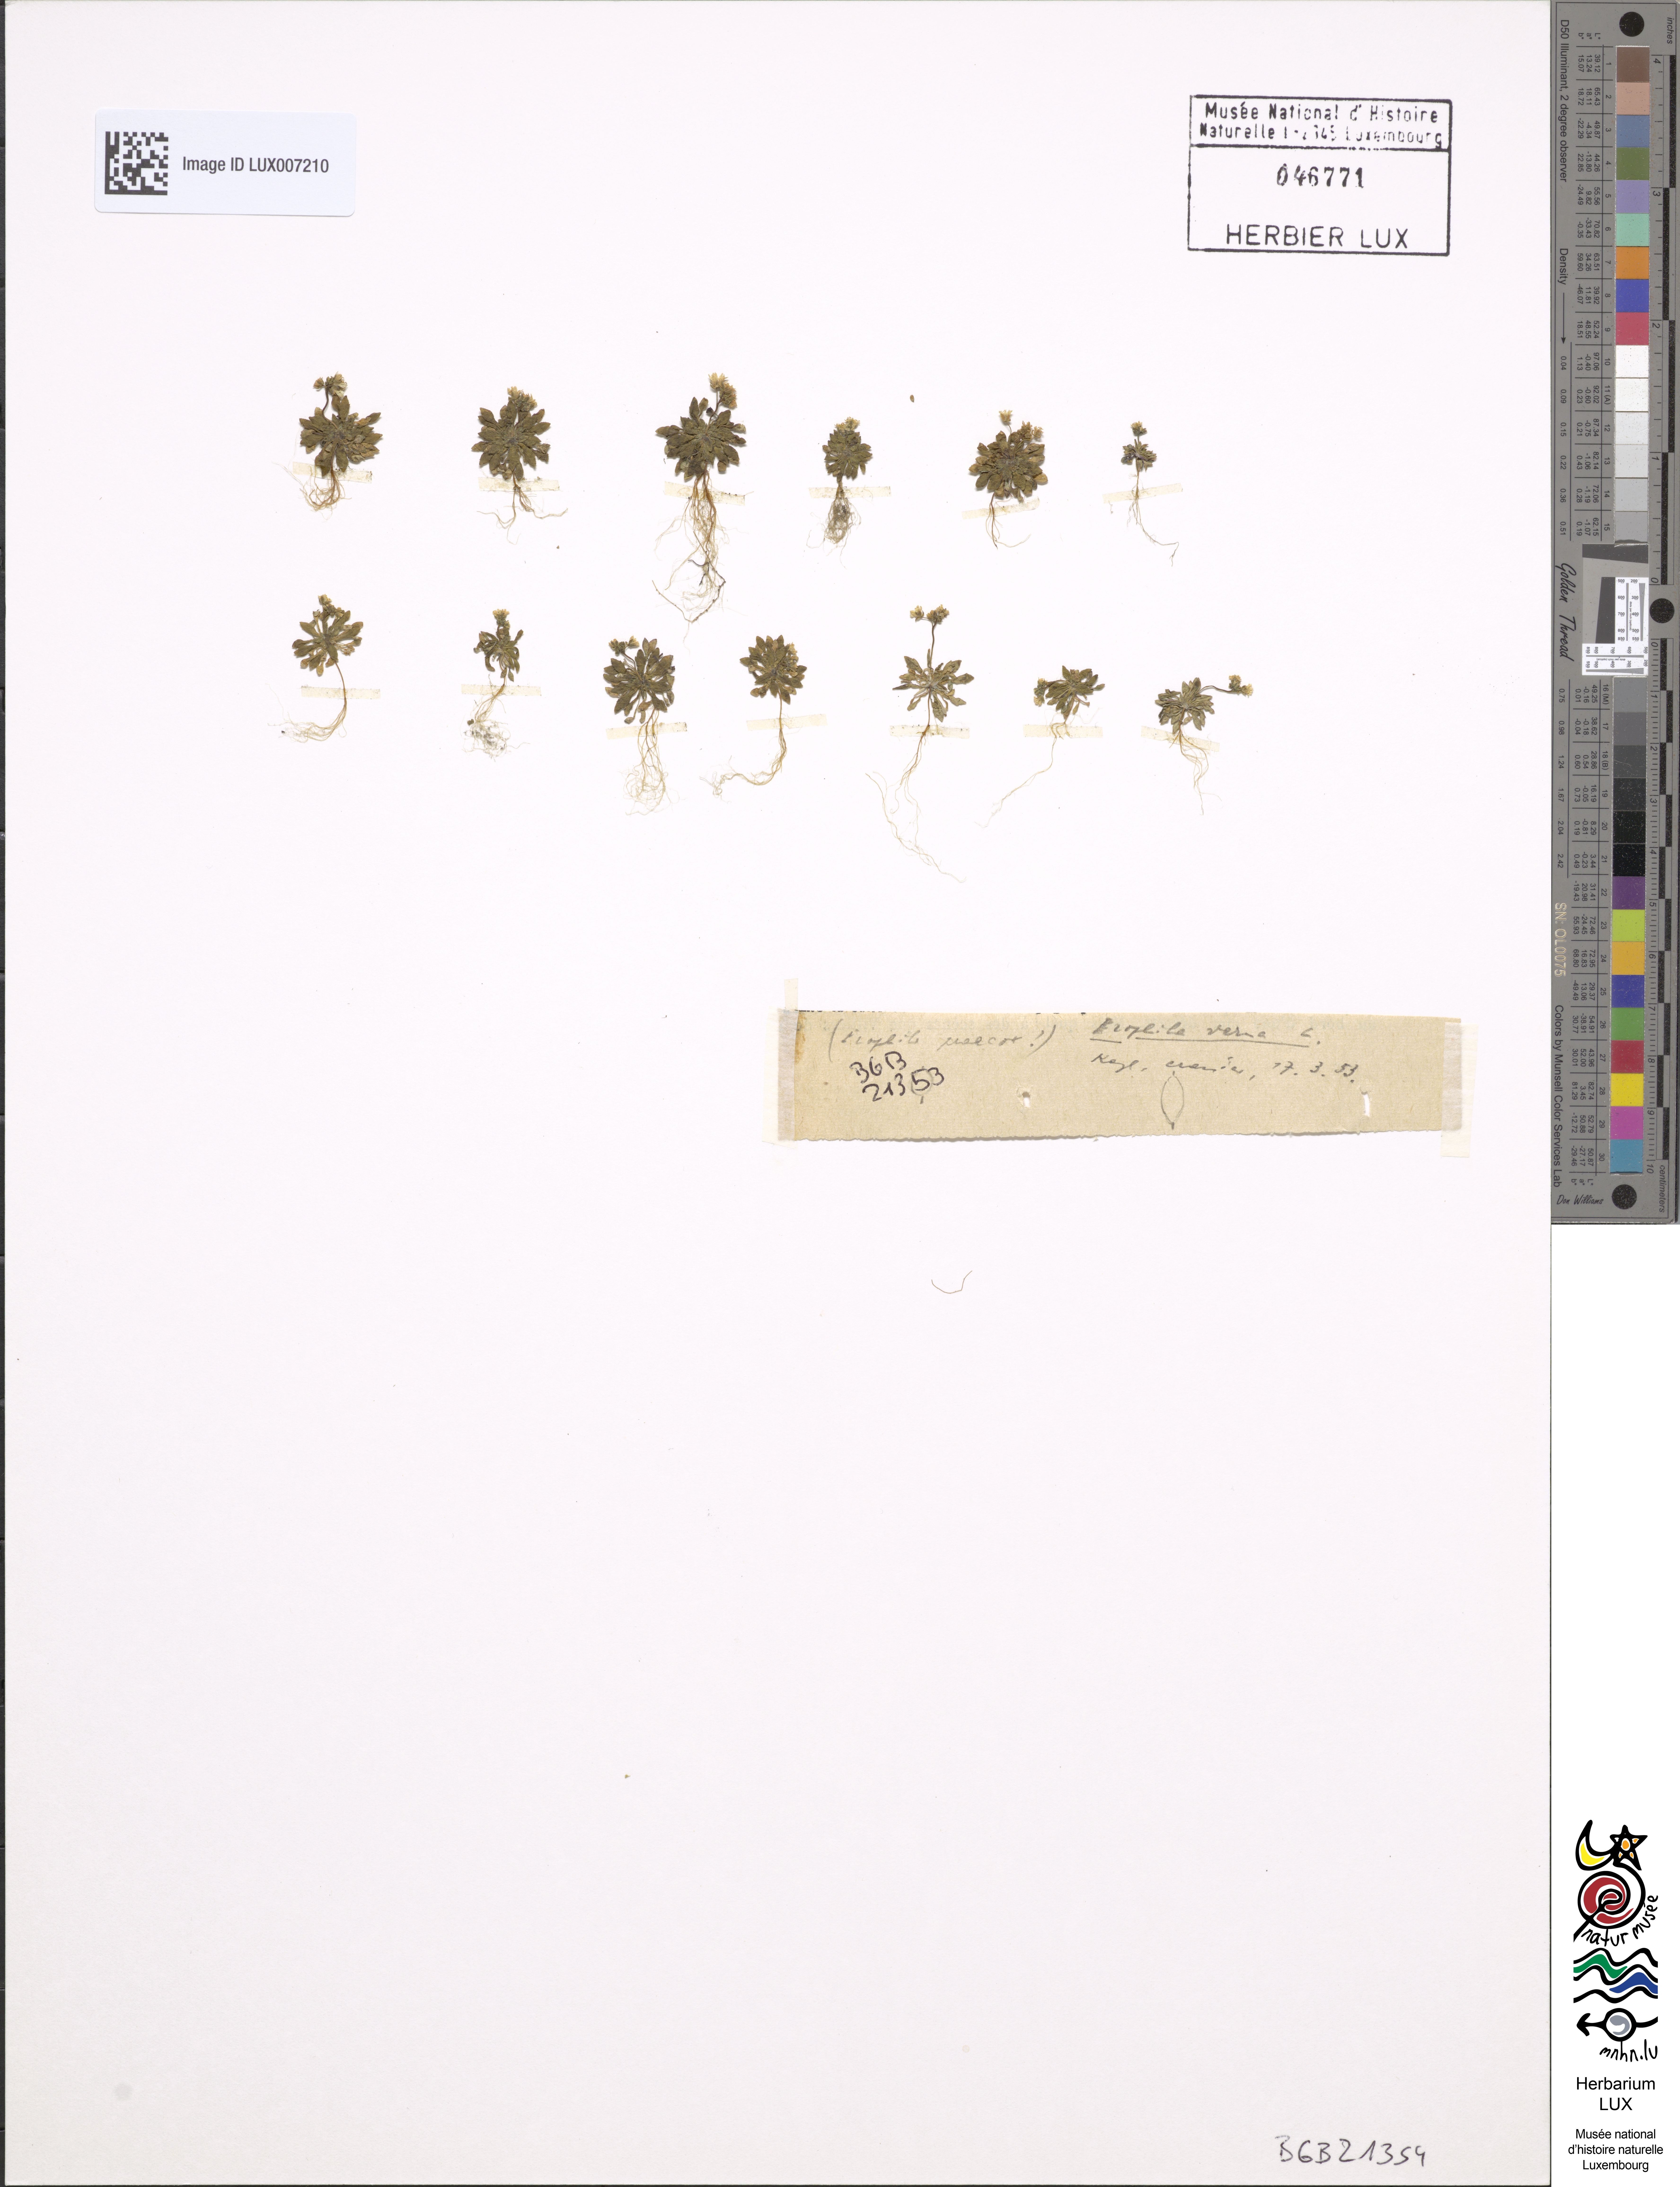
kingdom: Plantae
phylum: Tracheophyta
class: Magnoliopsida
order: Brassicales
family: Brassicaceae
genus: Draba
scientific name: Draba verna
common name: Spring draba
